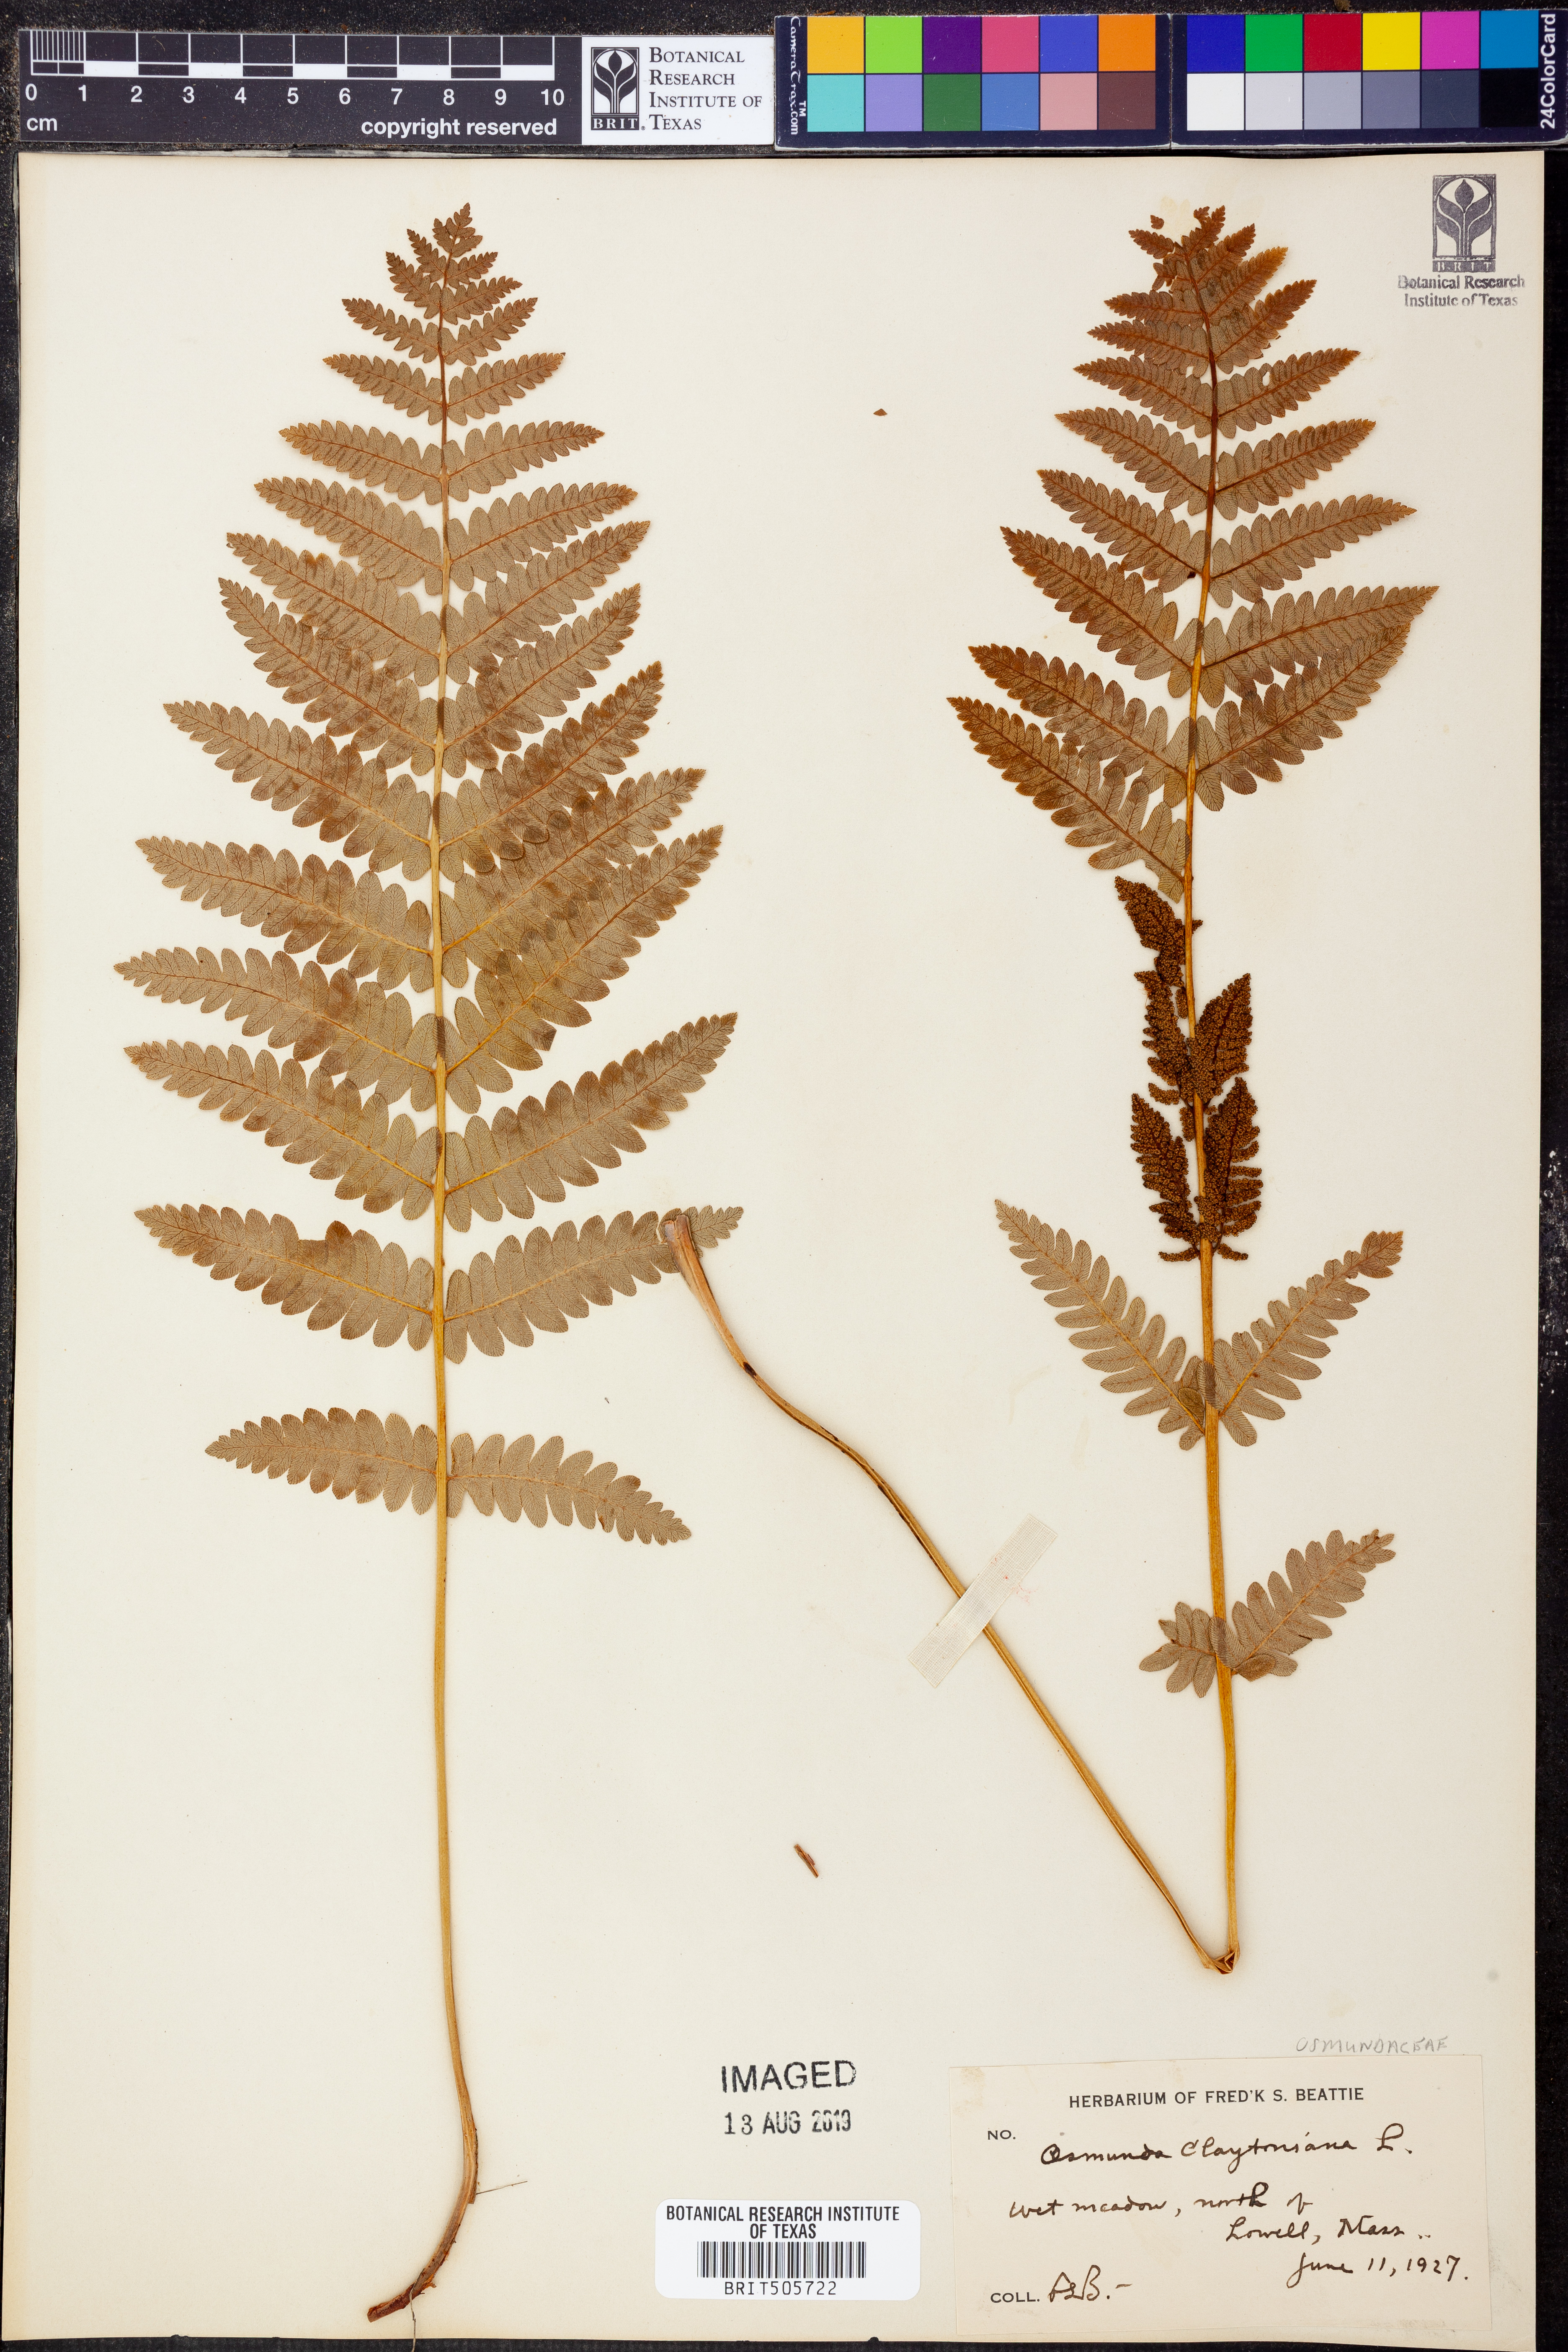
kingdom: Plantae
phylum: Tracheophyta
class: Polypodiopsida
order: Osmundales
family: Osmundaceae
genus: Claytosmunda
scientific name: Claytosmunda claytoniana
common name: Clayton's fern
